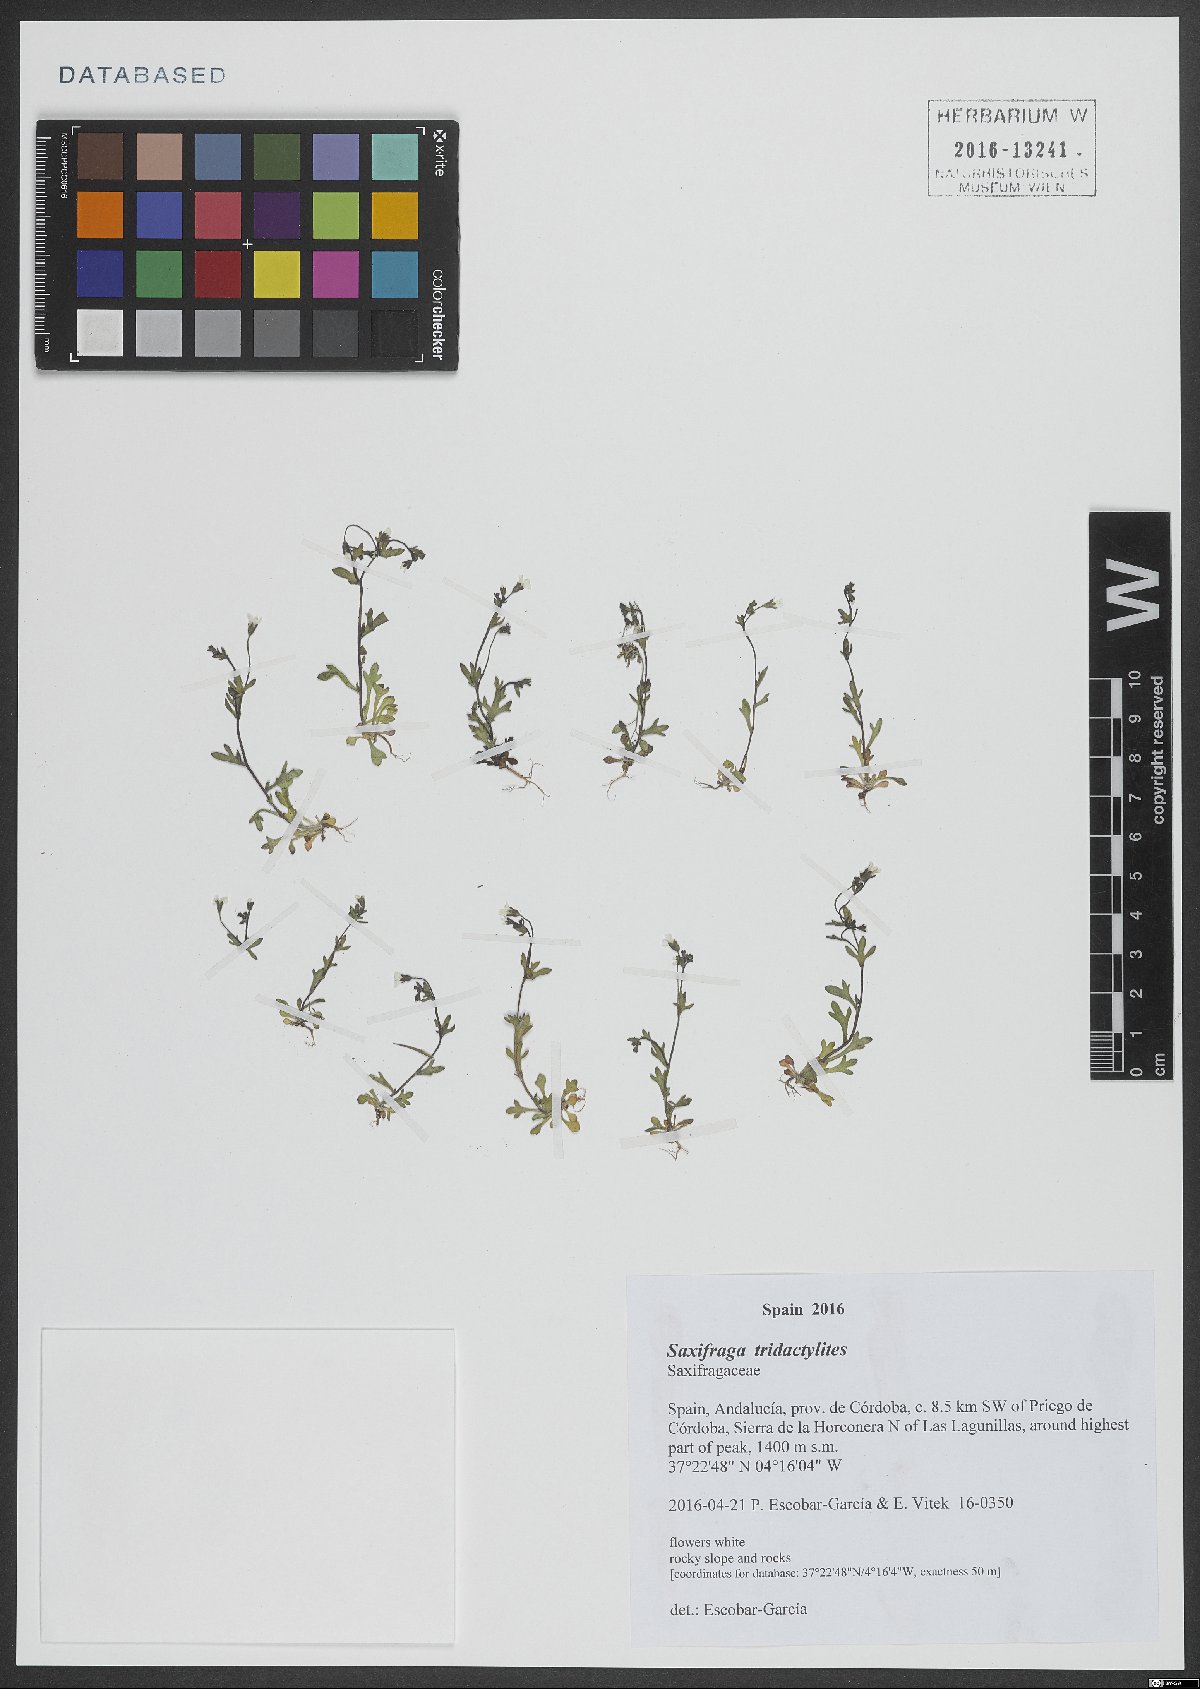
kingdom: Plantae
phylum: Tracheophyta
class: Magnoliopsida
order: Saxifragales
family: Saxifragaceae
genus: Saxifraga
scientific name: Saxifraga tridactylites
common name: Rue-leaved saxifrage
